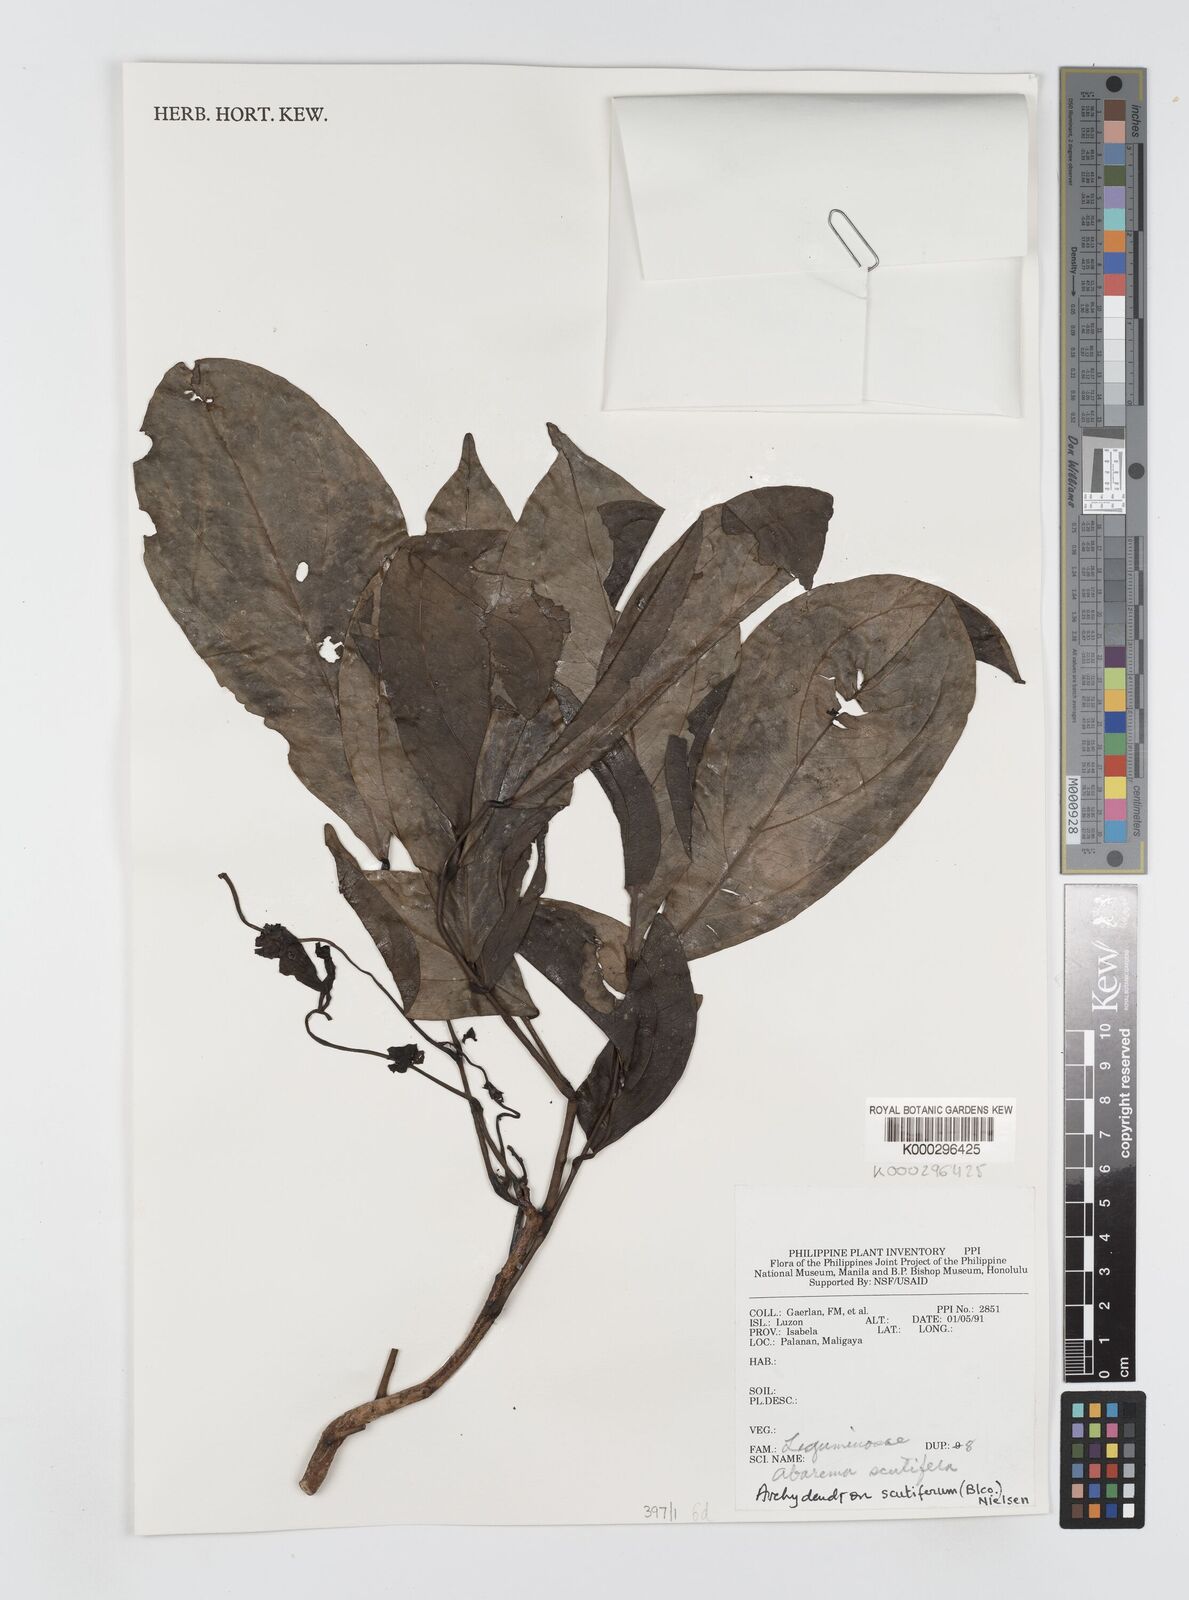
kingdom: Plantae
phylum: Tracheophyta
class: Magnoliopsida
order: Fabales
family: Fabaceae
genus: Archidendron
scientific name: Archidendron scutiferum
